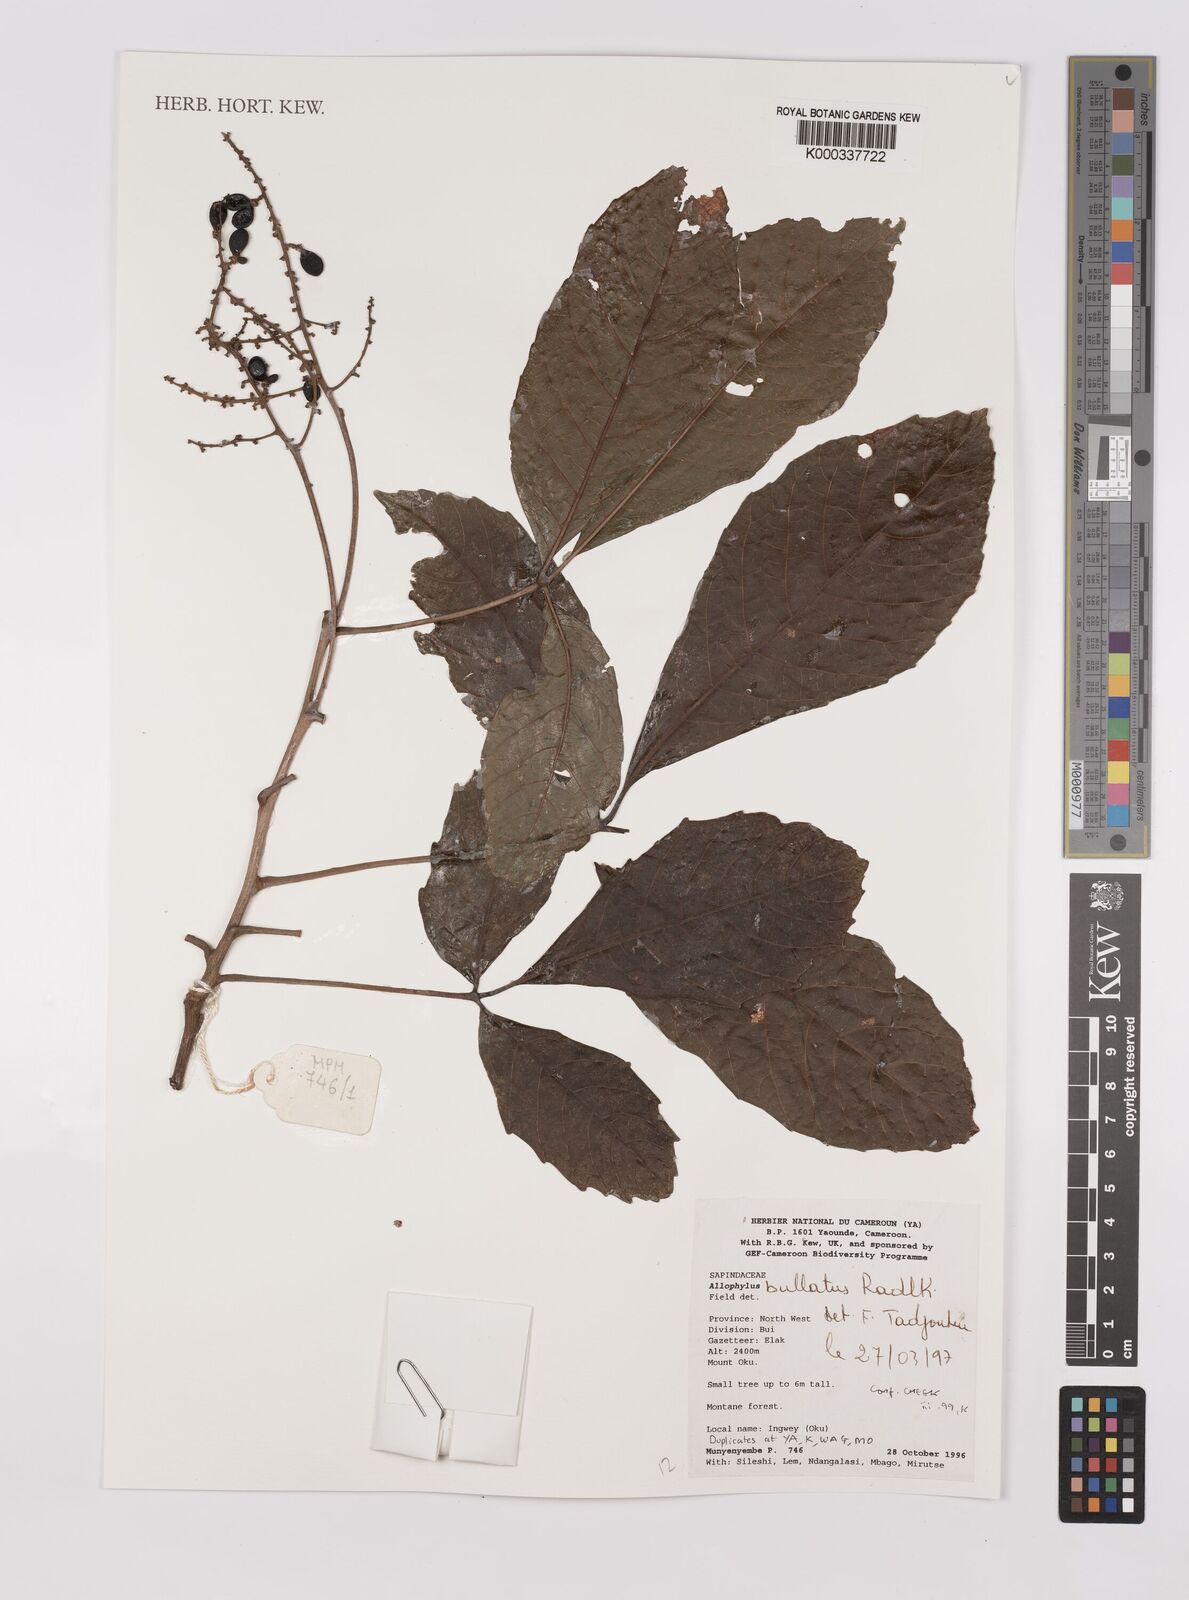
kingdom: Plantae
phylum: Tracheophyta
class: Magnoliopsida
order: Sapindales
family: Sapindaceae
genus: Allophylus
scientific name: Allophylus bullatus
